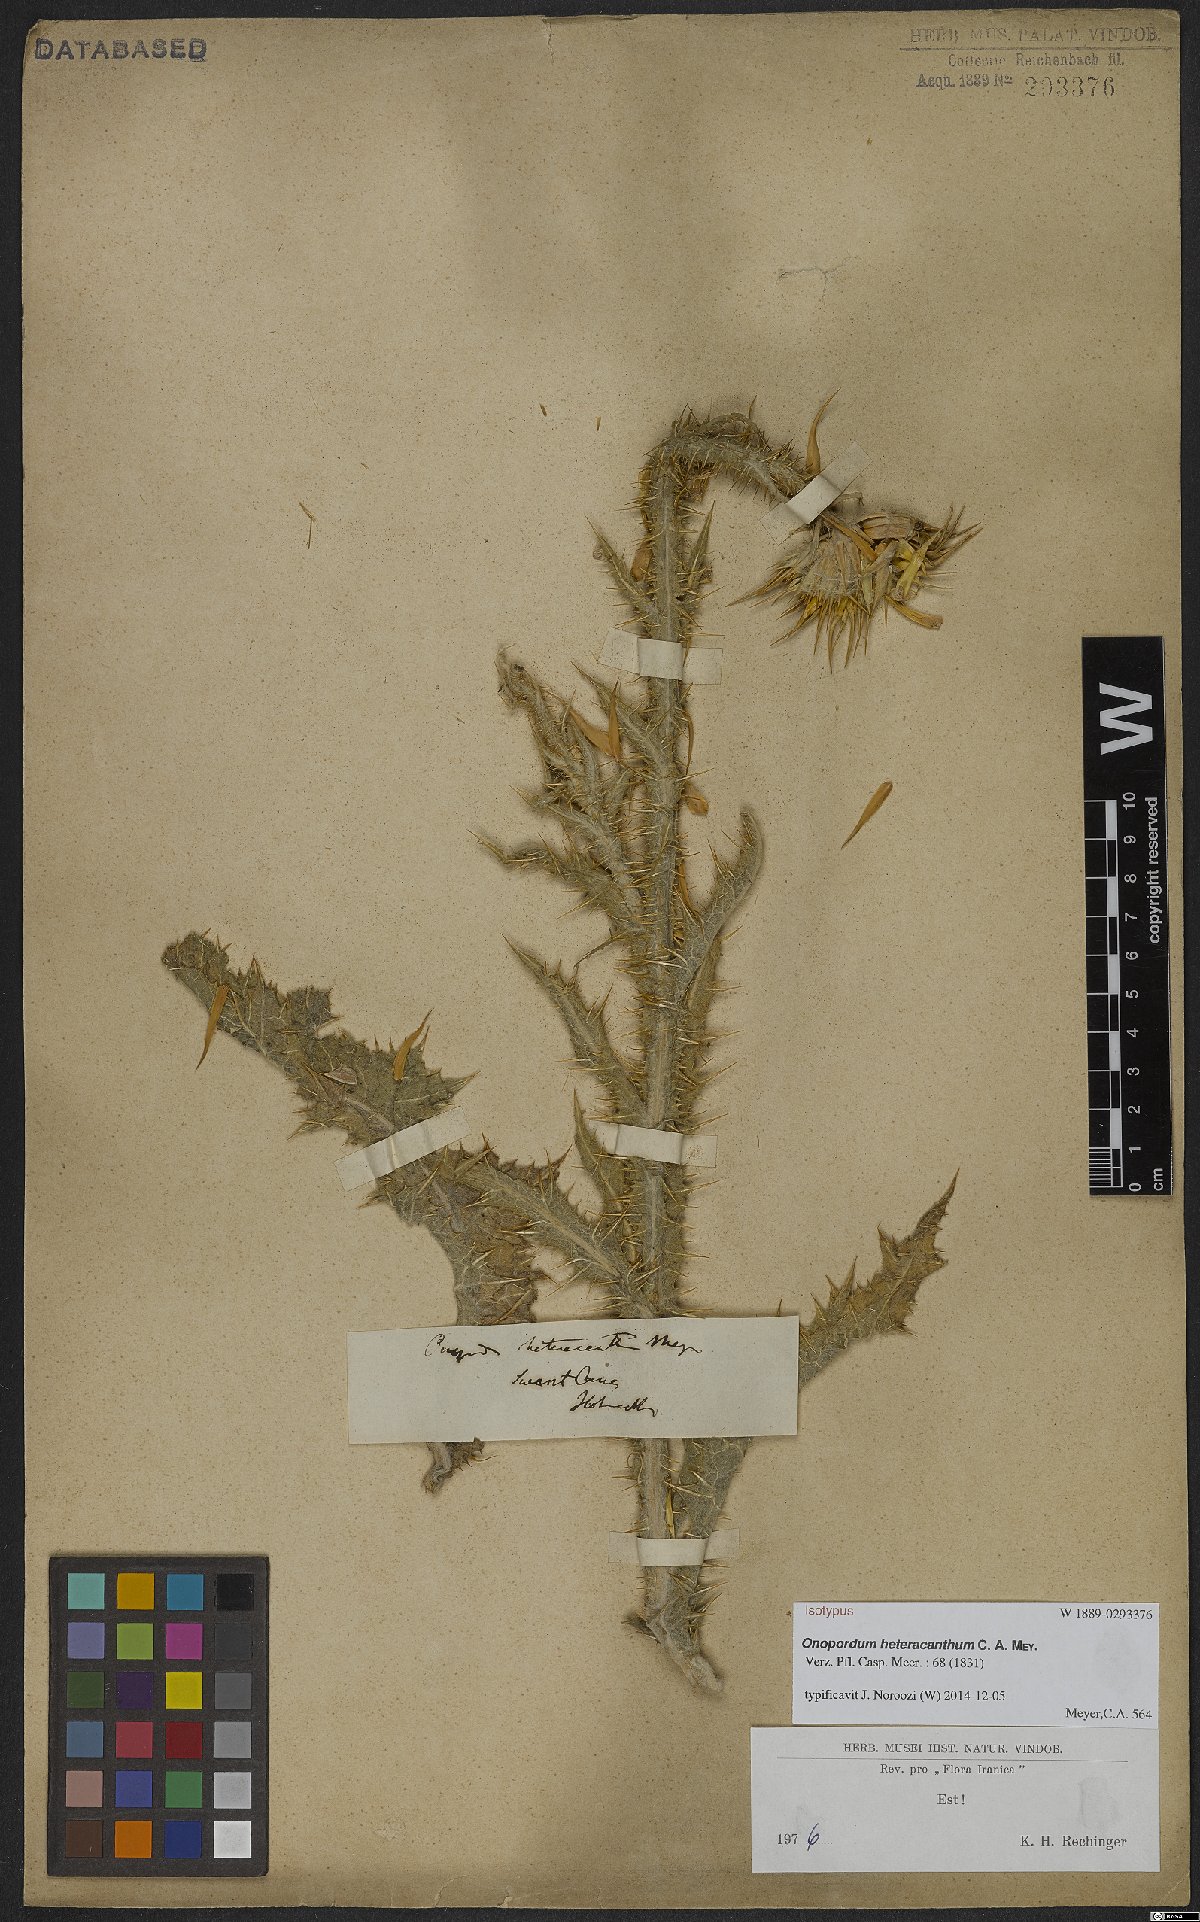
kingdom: Plantae
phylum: Tracheophyta
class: Magnoliopsida
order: Asterales
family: Asteraceae
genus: Onopordum
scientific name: Onopordum heteracanthum
